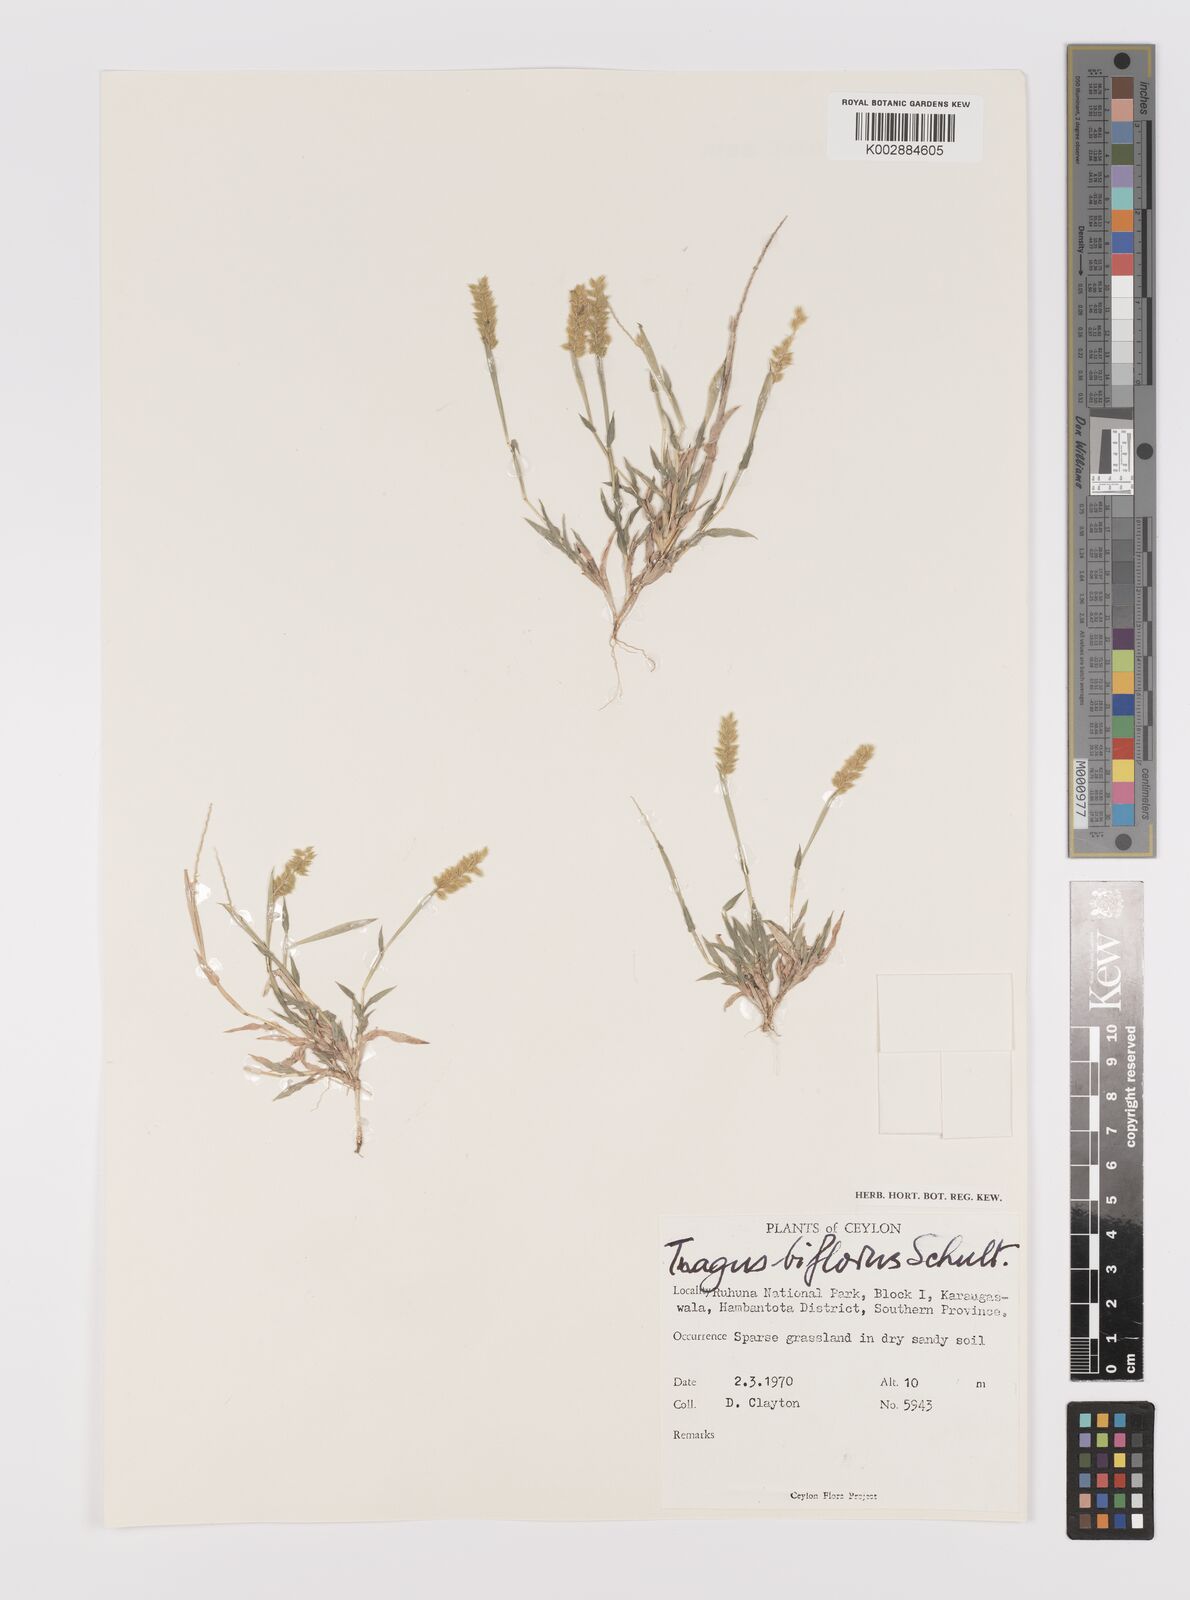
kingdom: Plantae
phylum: Tracheophyta
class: Liliopsida
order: Poales
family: Poaceae
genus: Tragus
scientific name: Tragus mongolorum
